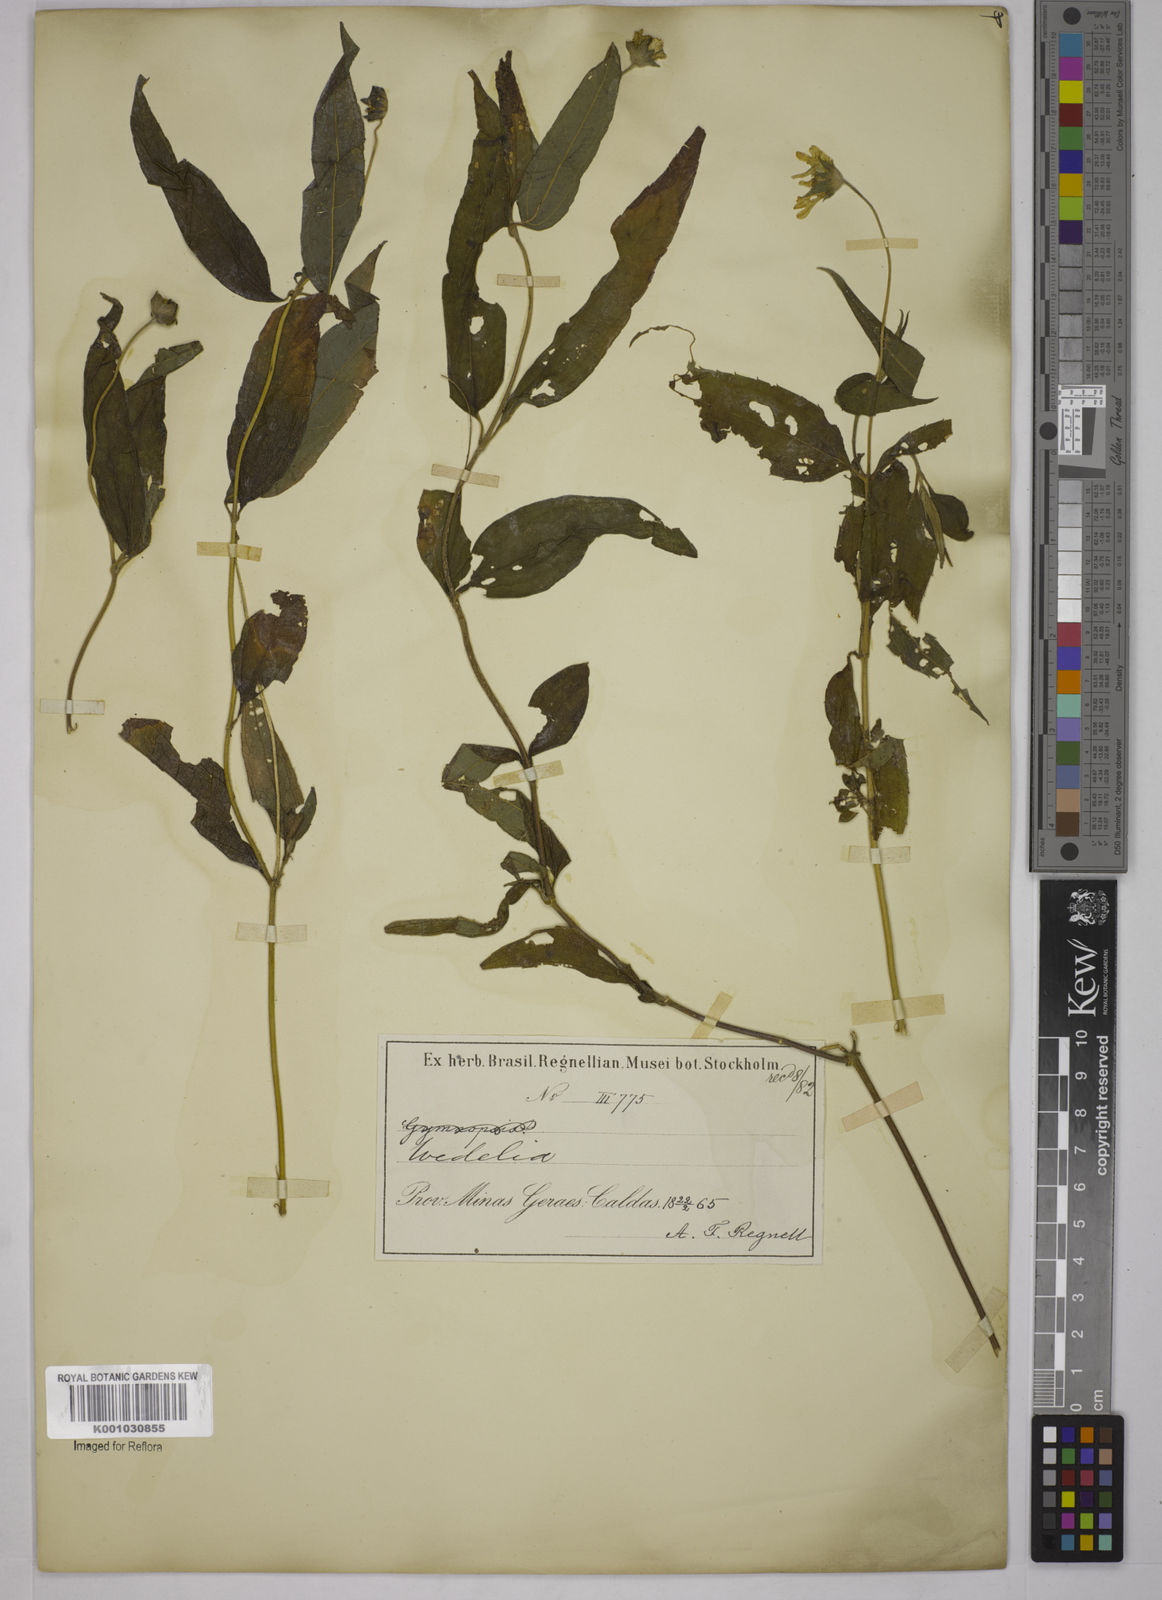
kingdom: Plantae
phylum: Tracheophyta
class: Magnoliopsida
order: Asterales
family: Asteraceae
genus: Wedelia
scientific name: Wedelia subvelutina
